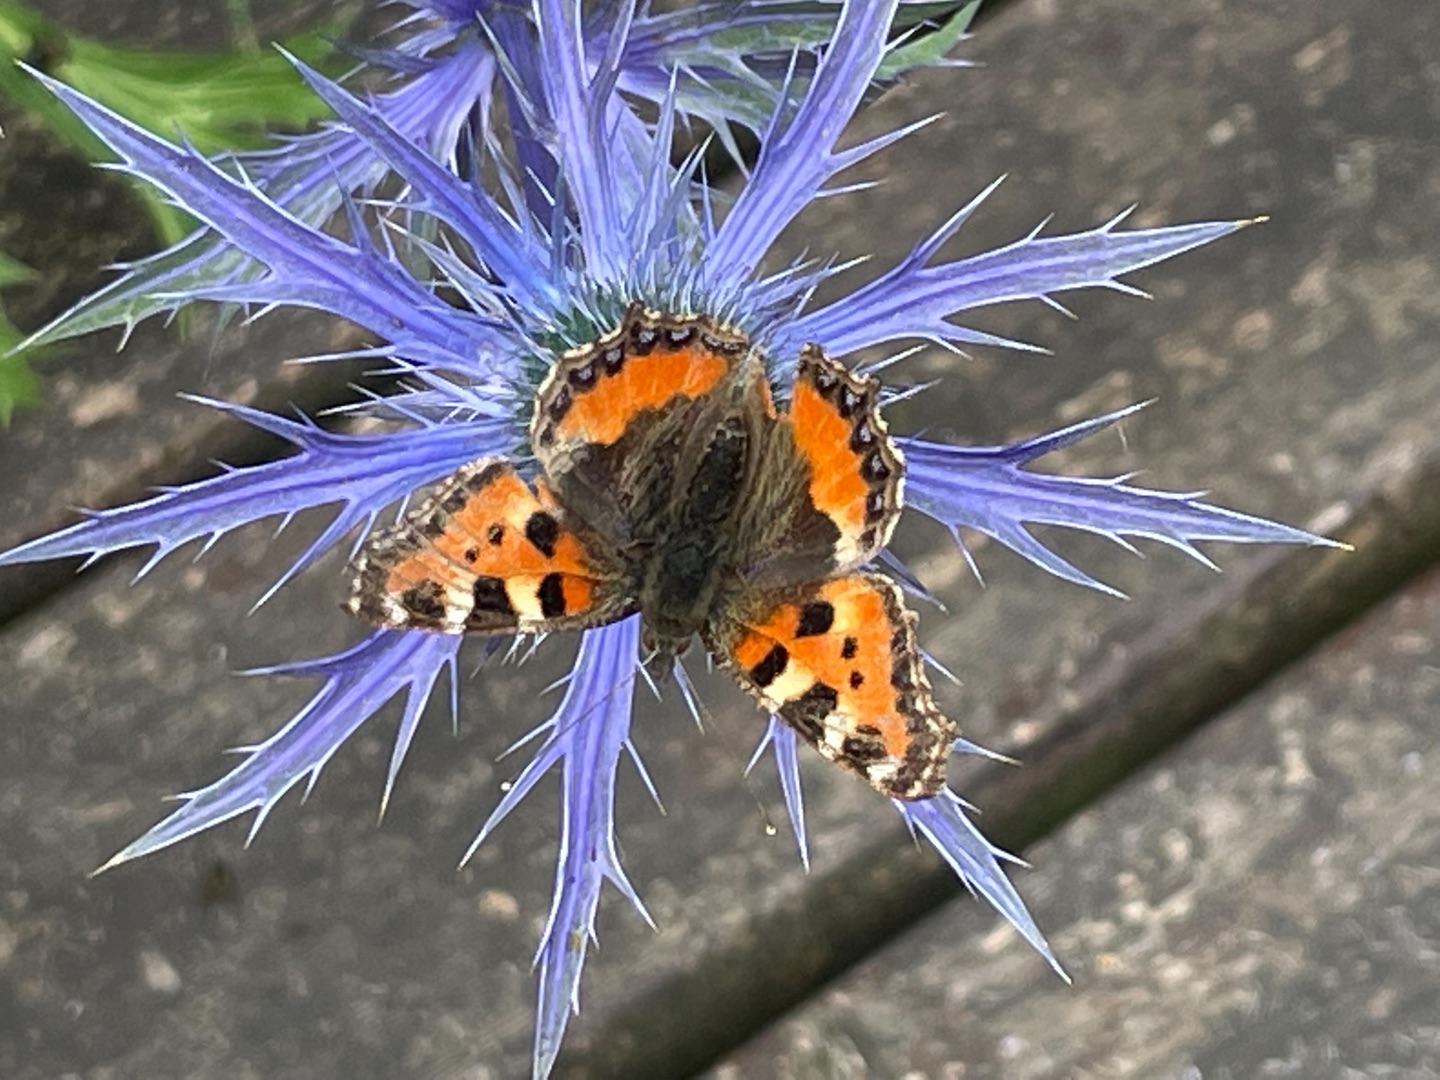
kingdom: Animalia
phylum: Arthropoda
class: Insecta
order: Lepidoptera
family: Nymphalidae
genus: Aglais
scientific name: Aglais urticae
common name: Nældens takvinge
